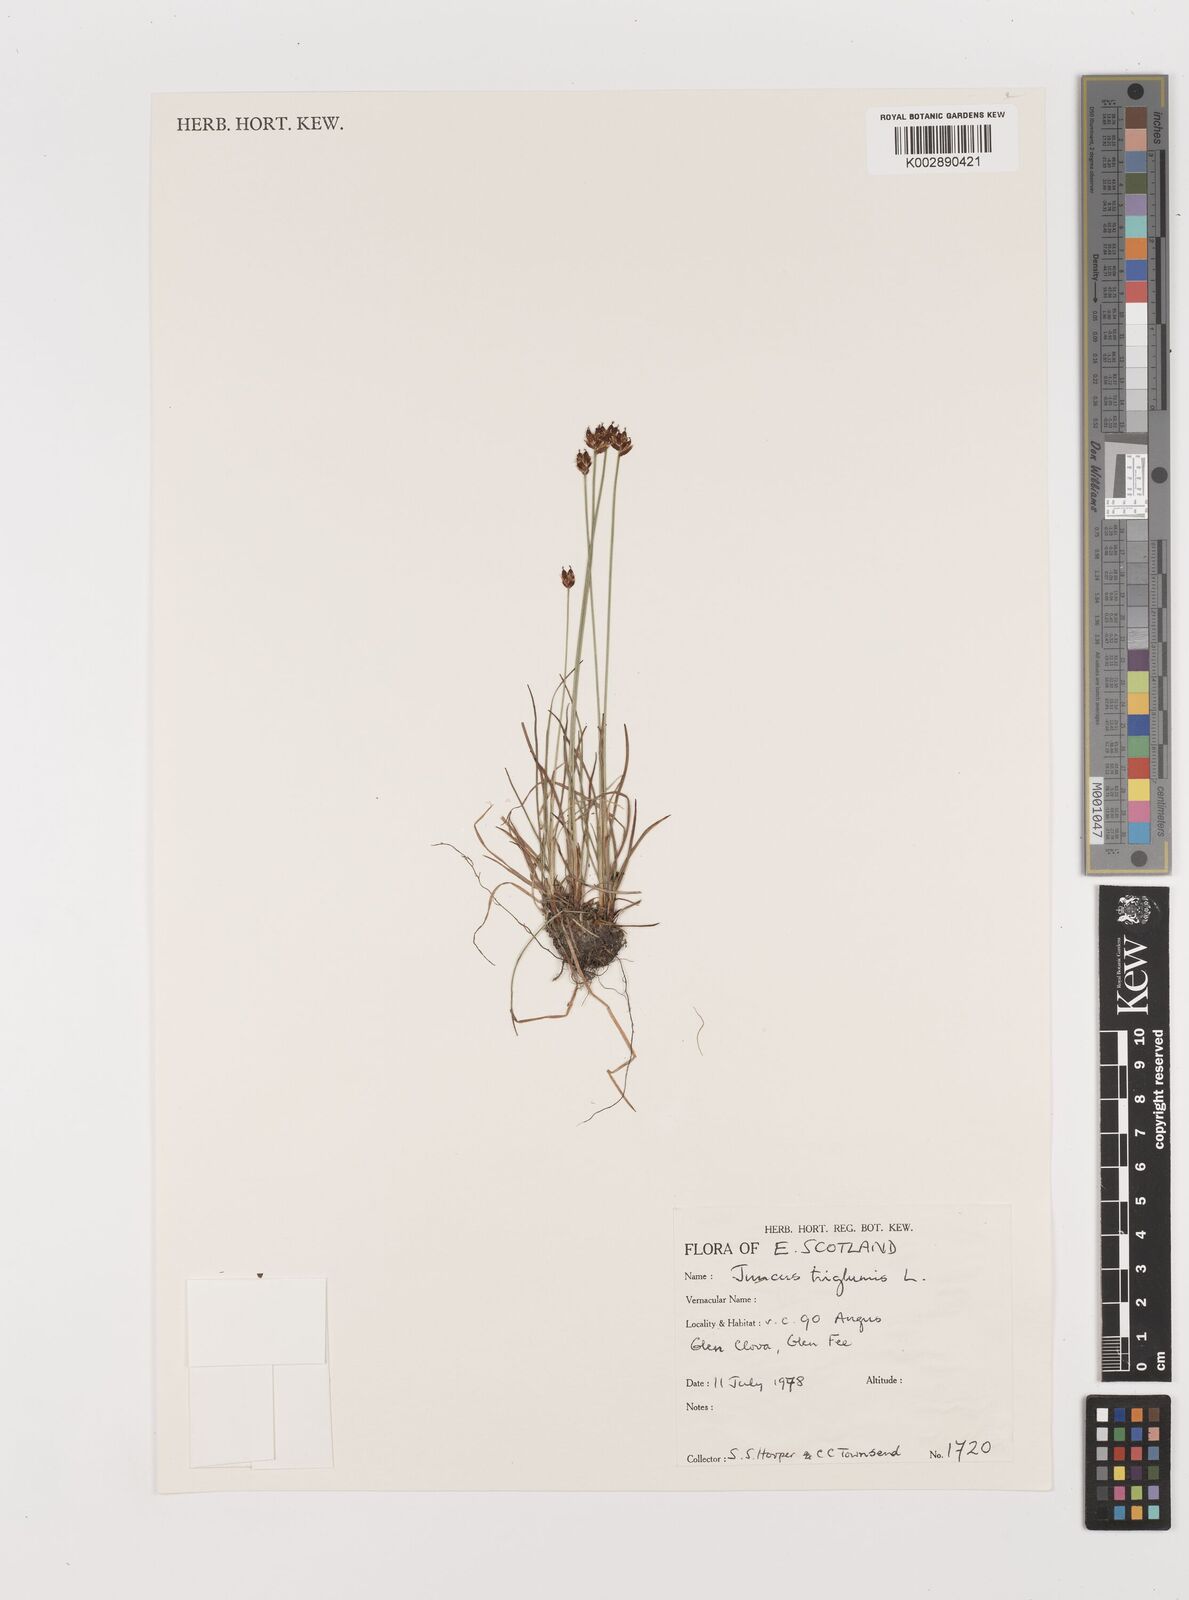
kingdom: Plantae
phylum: Tracheophyta
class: Liliopsida
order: Poales
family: Juncaceae
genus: Juncus
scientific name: Juncus triglumis
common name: Three-flowered rush
